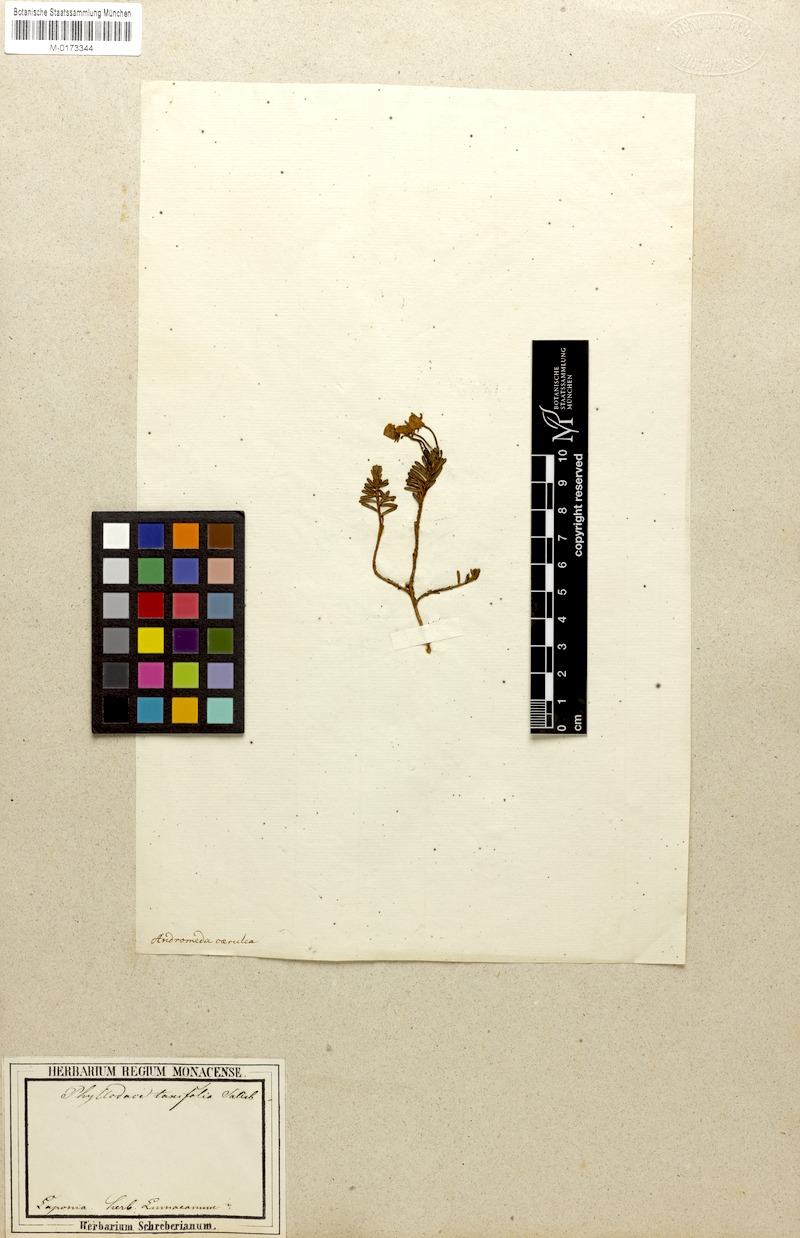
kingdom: Plantae
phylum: Tracheophyta
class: Magnoliopsida
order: Ericales
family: Ericaceae
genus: Phyllodoce
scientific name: Phyllodoce caerulea
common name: Blue heath
